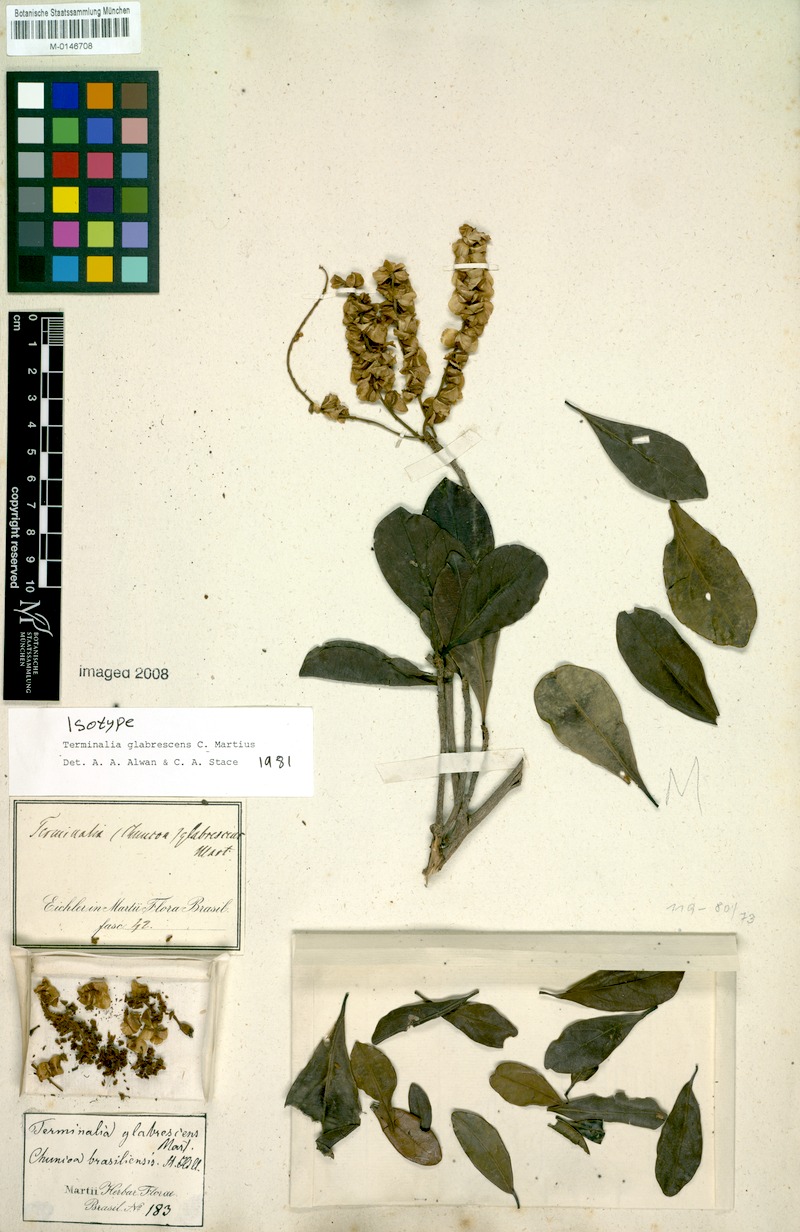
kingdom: Plantae
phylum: Tracheophyta
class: Magnoliopsida
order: Myrtales
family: Combretaceae
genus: Terminalia
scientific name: Terminalia glabrescens
